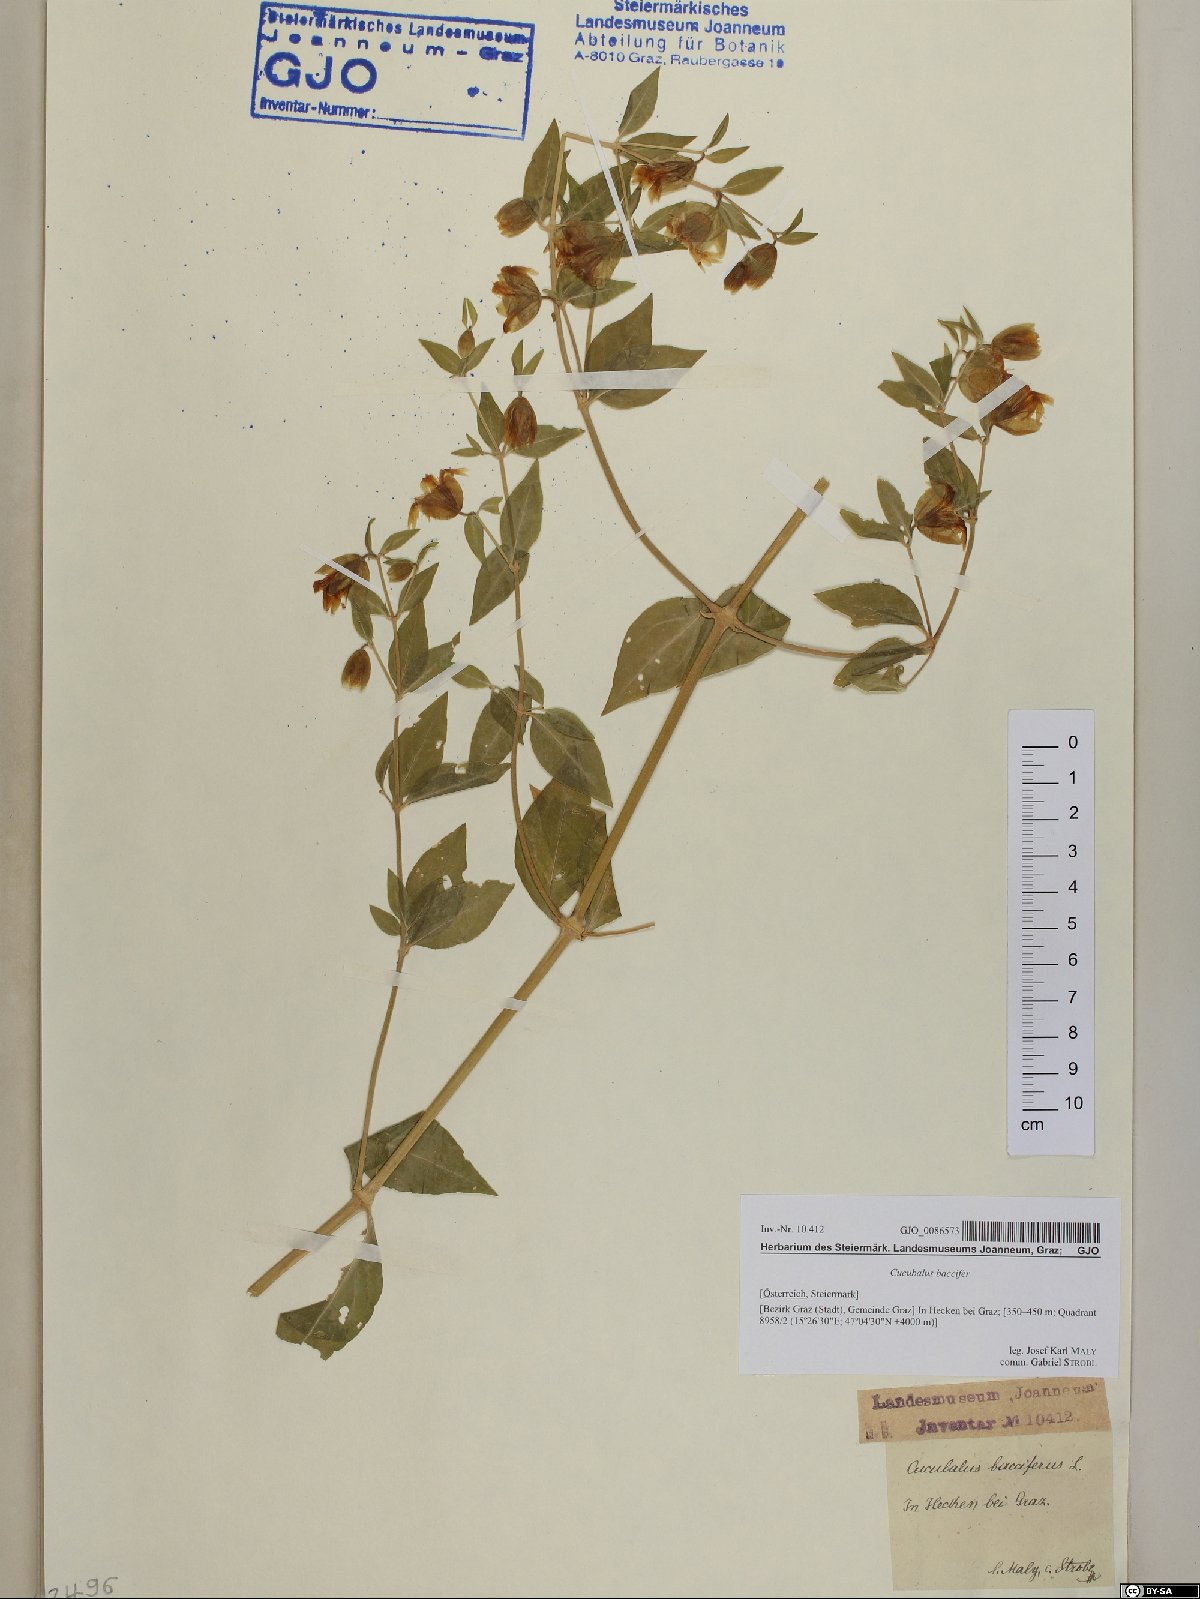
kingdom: Plantae
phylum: Tracheophyta
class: Magnoliopsida
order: Caryophyllales
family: Caryophyllaceae
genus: Silene
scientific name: Silene baccifera
